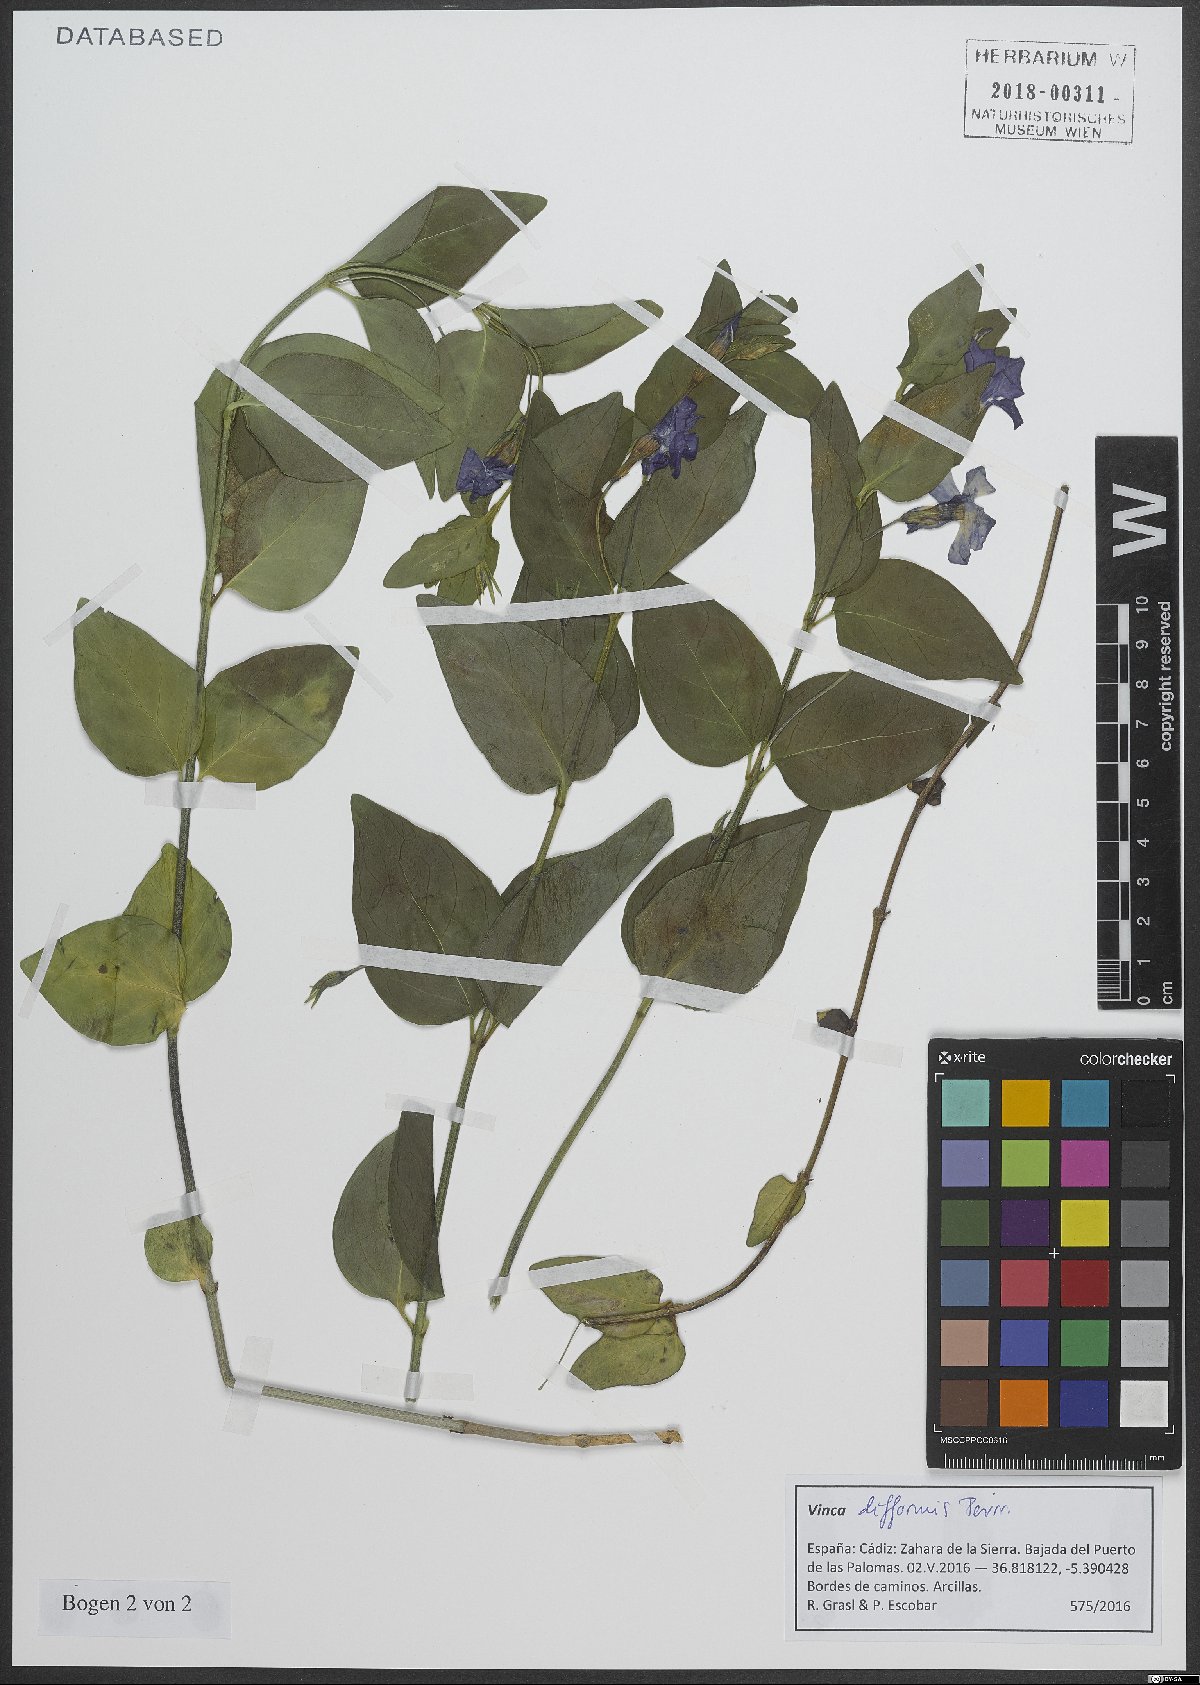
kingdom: Plantae
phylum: Tracheophyta
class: Magnoliopsida
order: Gentianales
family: Apocynaceae
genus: Vinca
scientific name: Vinca difformis
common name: Intermediate periwinkle
